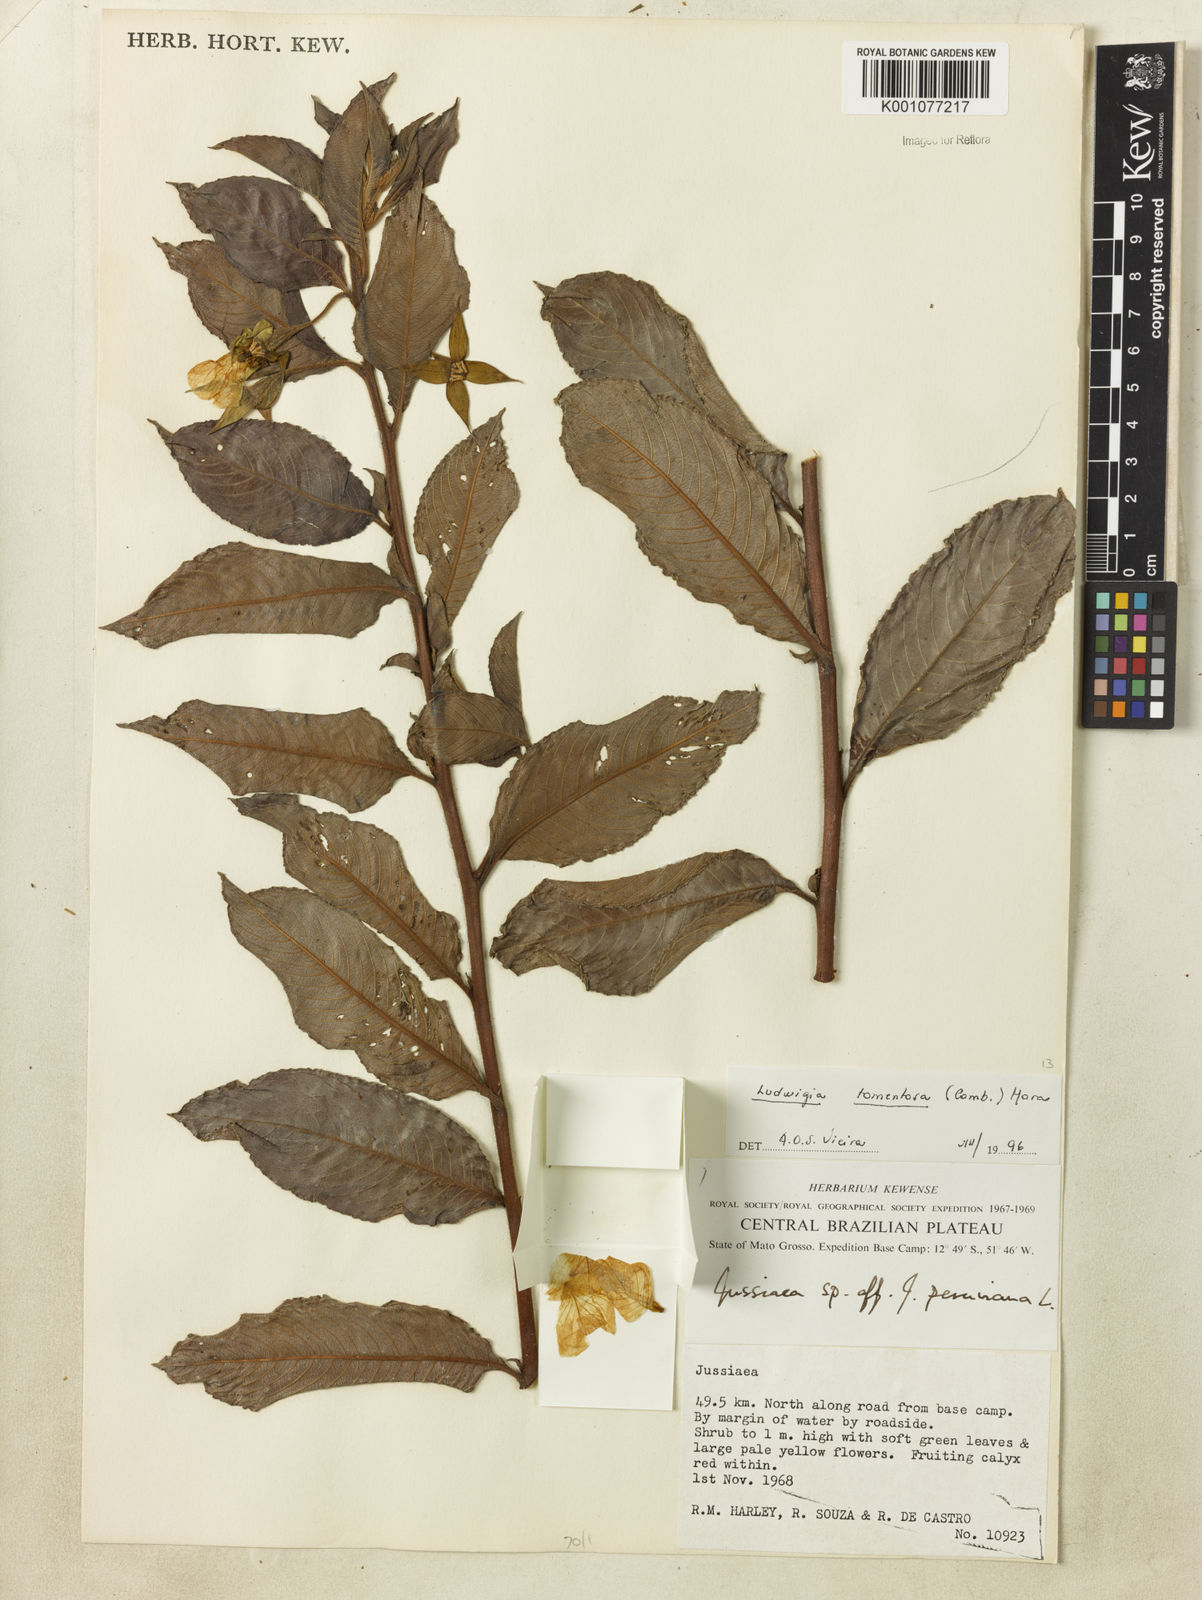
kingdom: Plantae
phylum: Tracheophyta
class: Magnoliopsida
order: Myrtales
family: Onagraceae
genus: Ludwigia
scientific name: Ludwigia tomentosa
